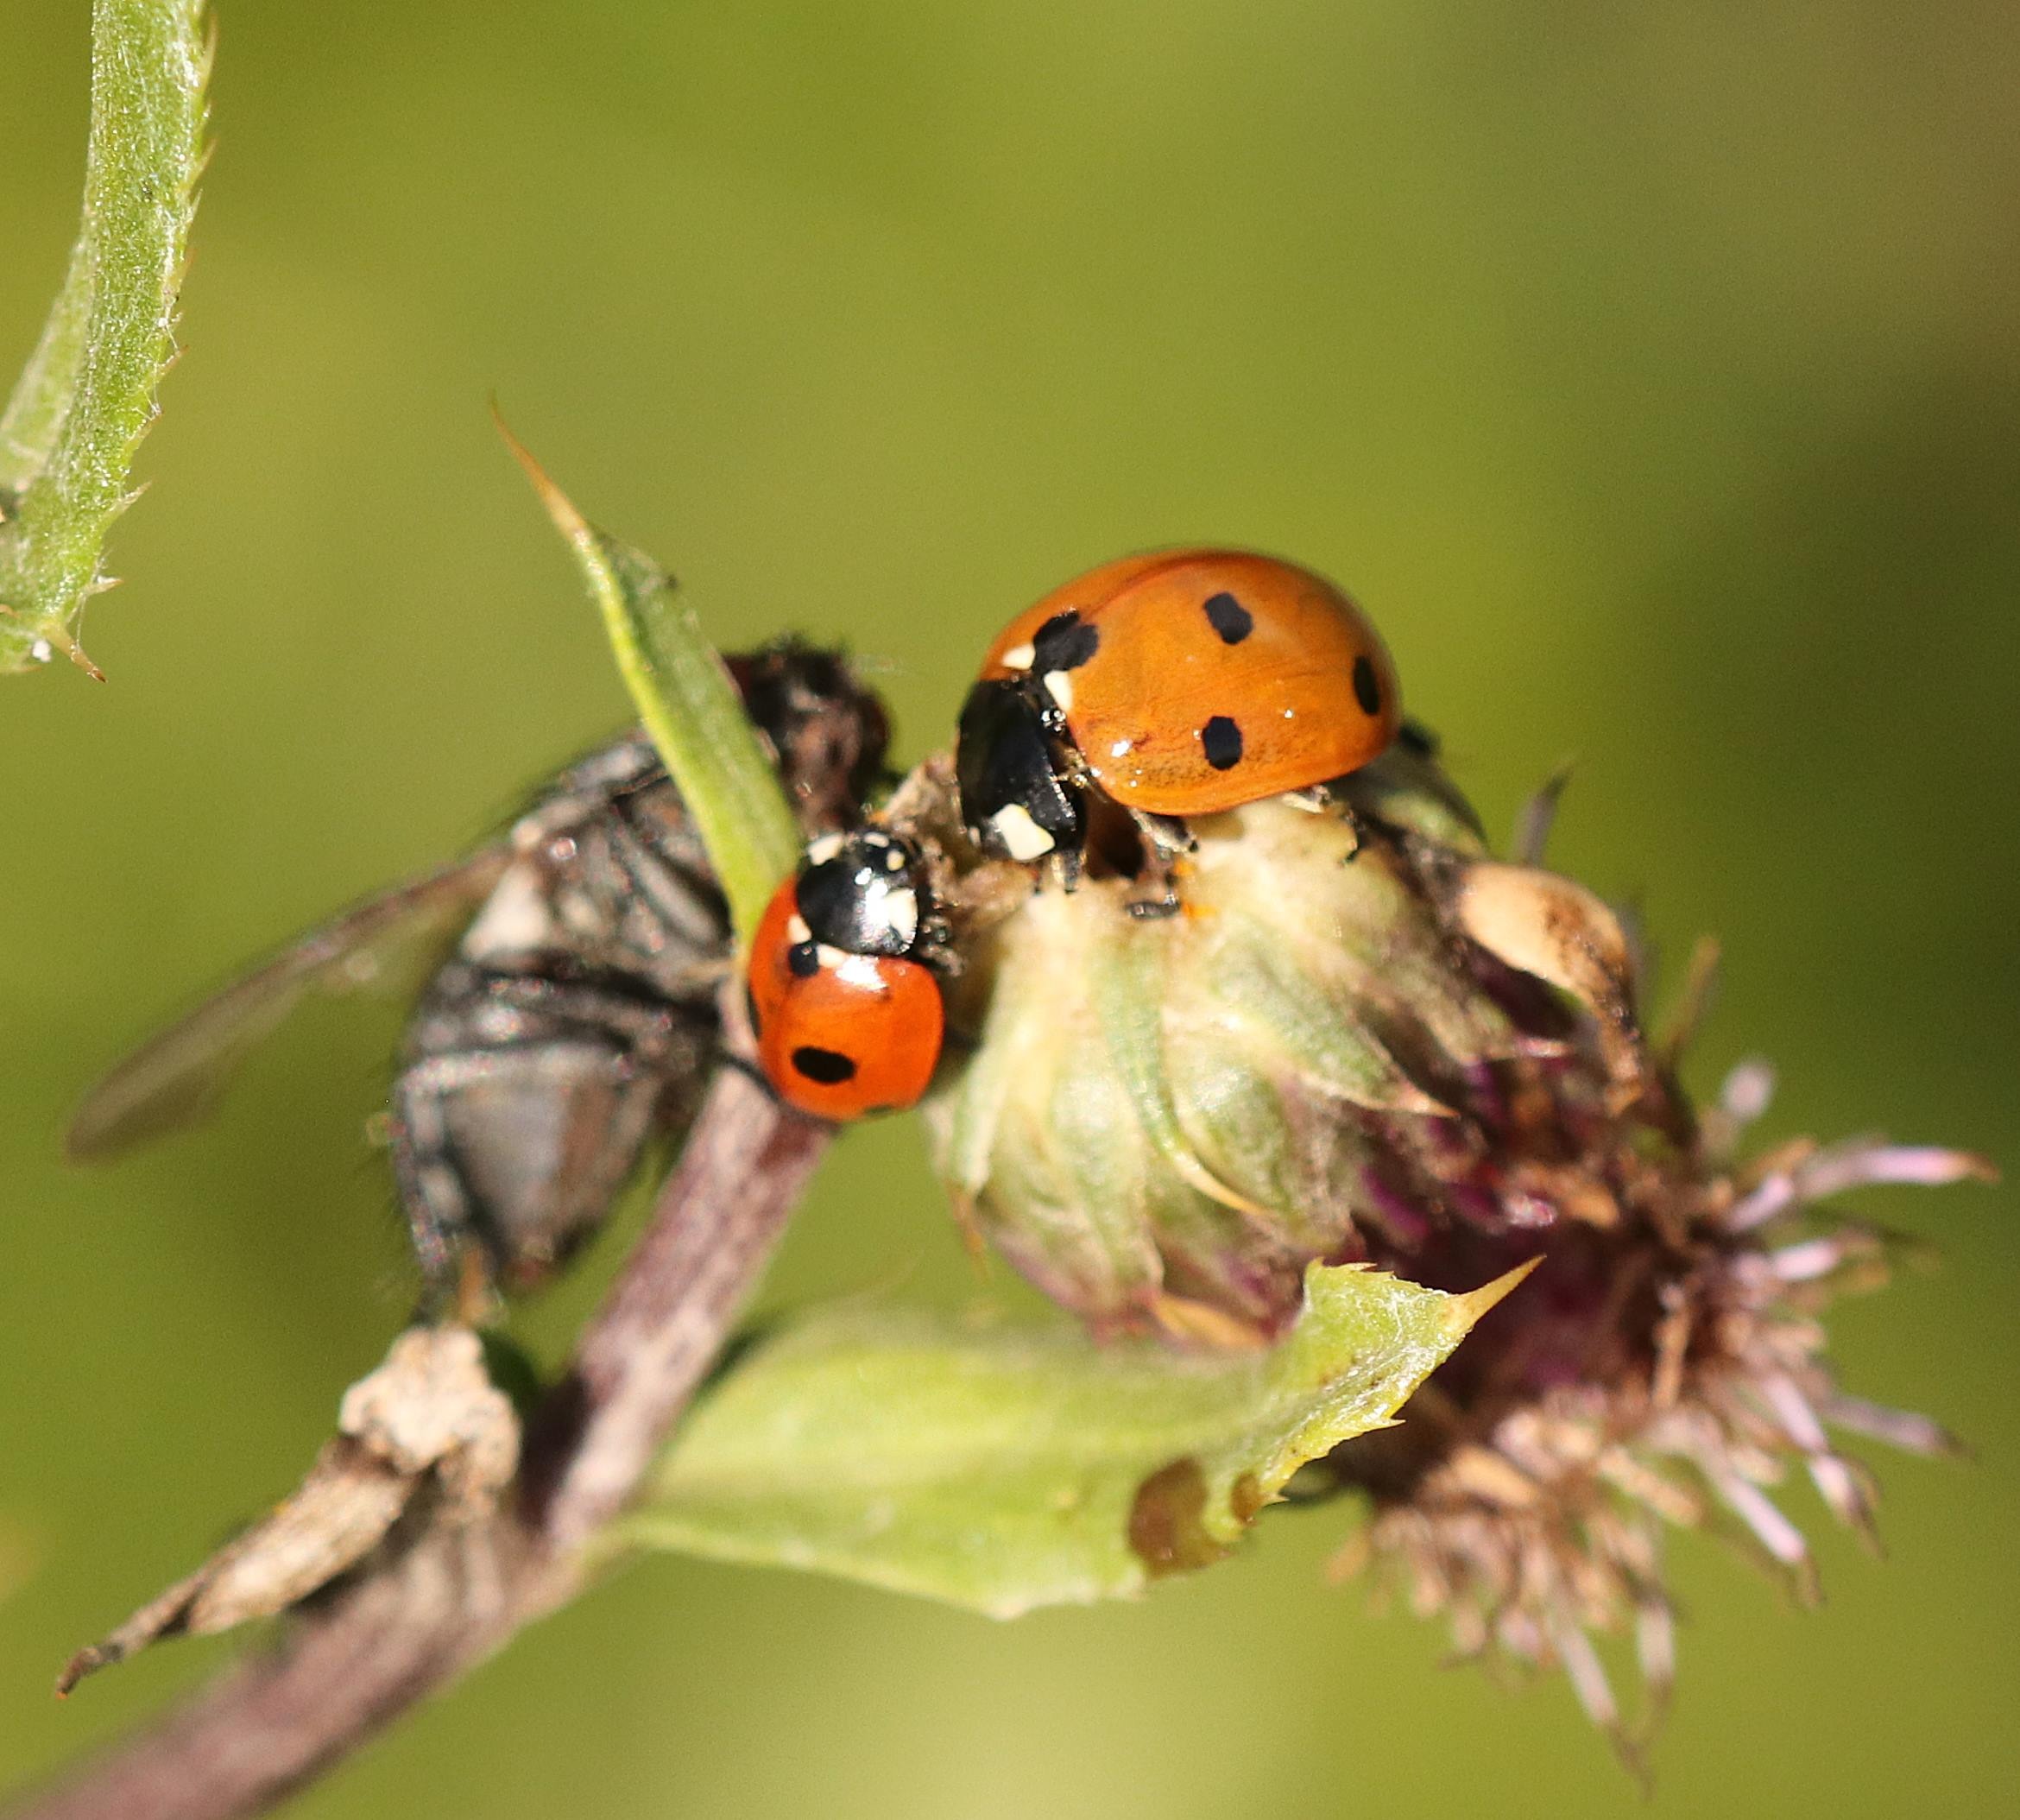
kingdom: Animalia
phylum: Arthropoda
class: Insecta
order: Coleoptera
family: Coccinellidae
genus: Coccinella
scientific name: Coccinella septempunctata
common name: Syvplettet mariehøne
